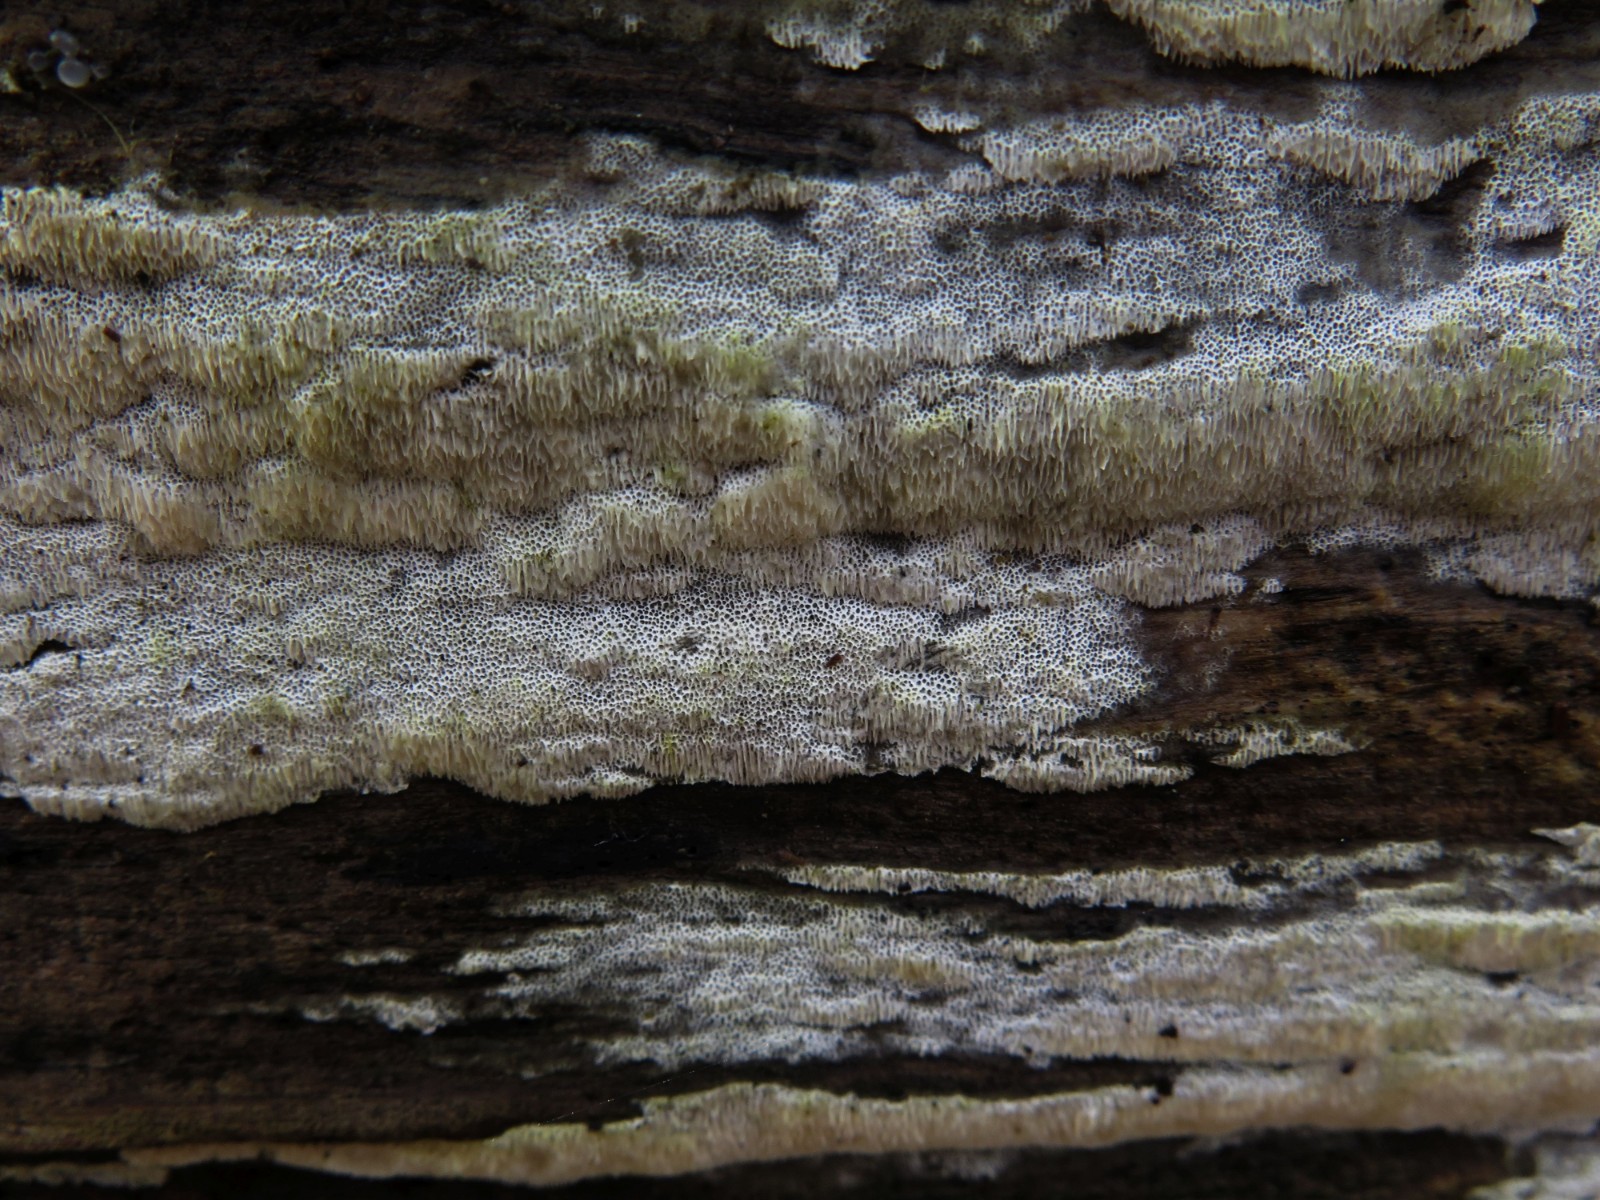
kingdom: Fungi
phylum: Basidiomycota
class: Agaricomycetes
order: Polyporales
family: Meripilaceae
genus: Rigidoporus
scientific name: Rigidoporus
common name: trylleporesvamp
